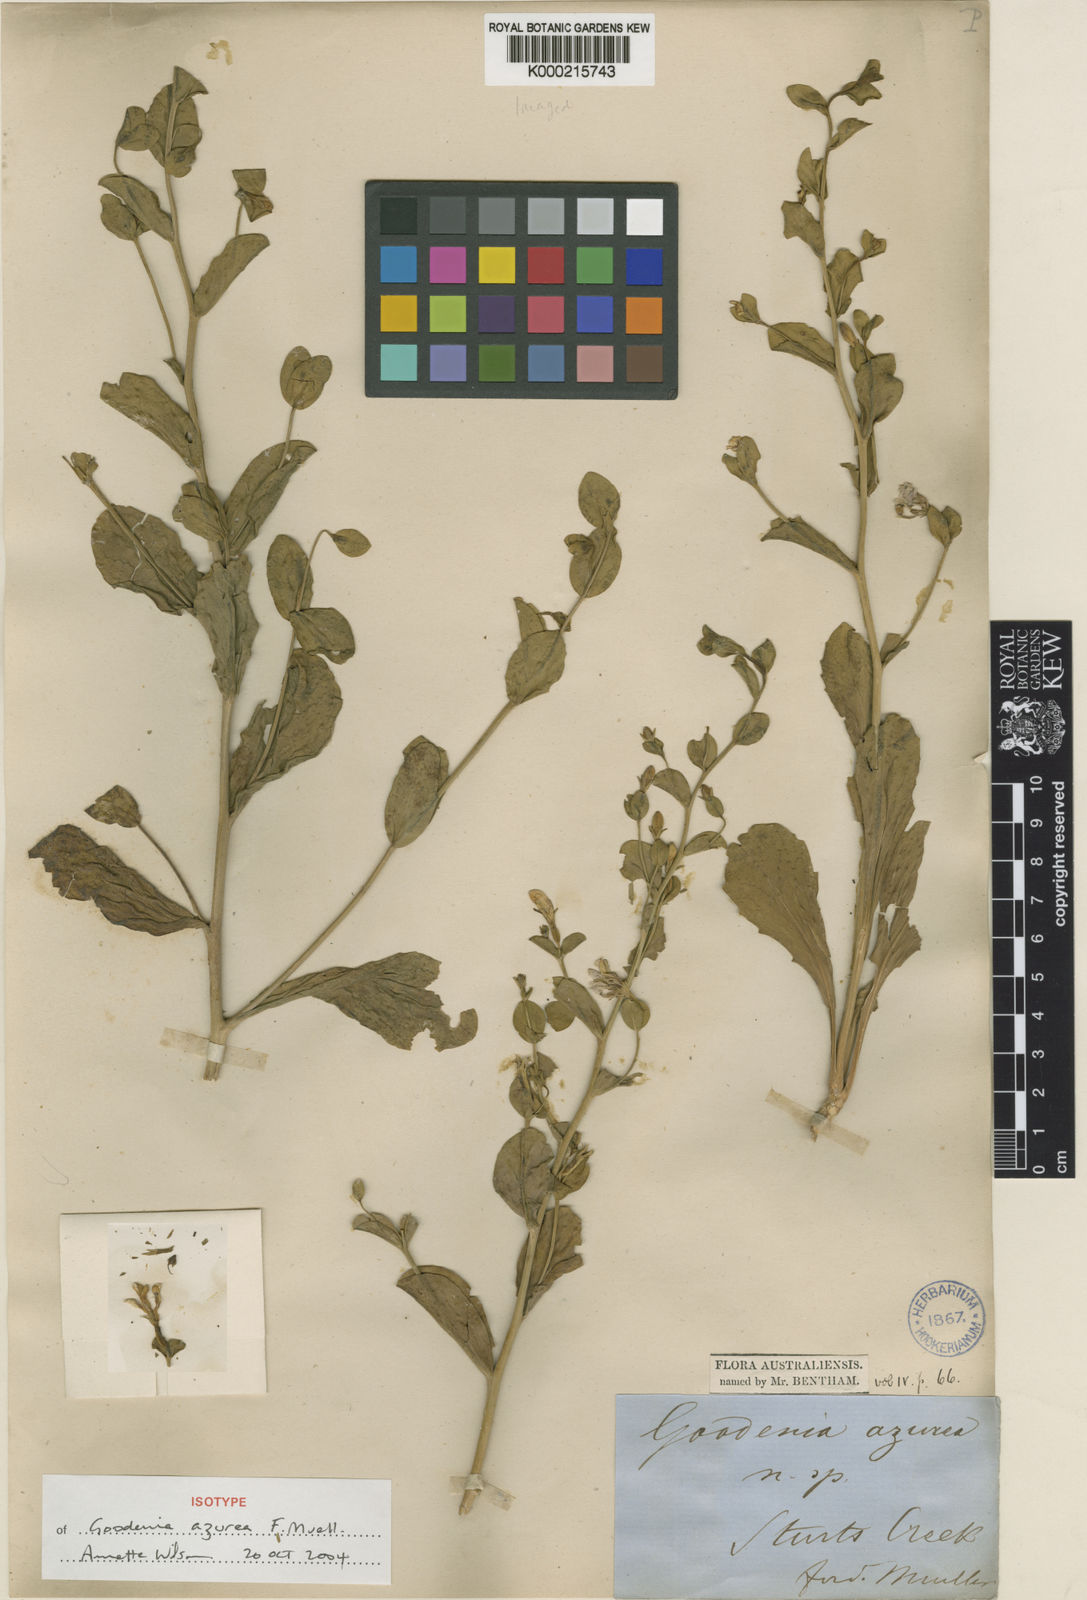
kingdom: Plantae
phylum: Tracheophyta
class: Magnoliopsida
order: Asterales
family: Goodeniaceae
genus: Goodenia
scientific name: Goodenia azurea
